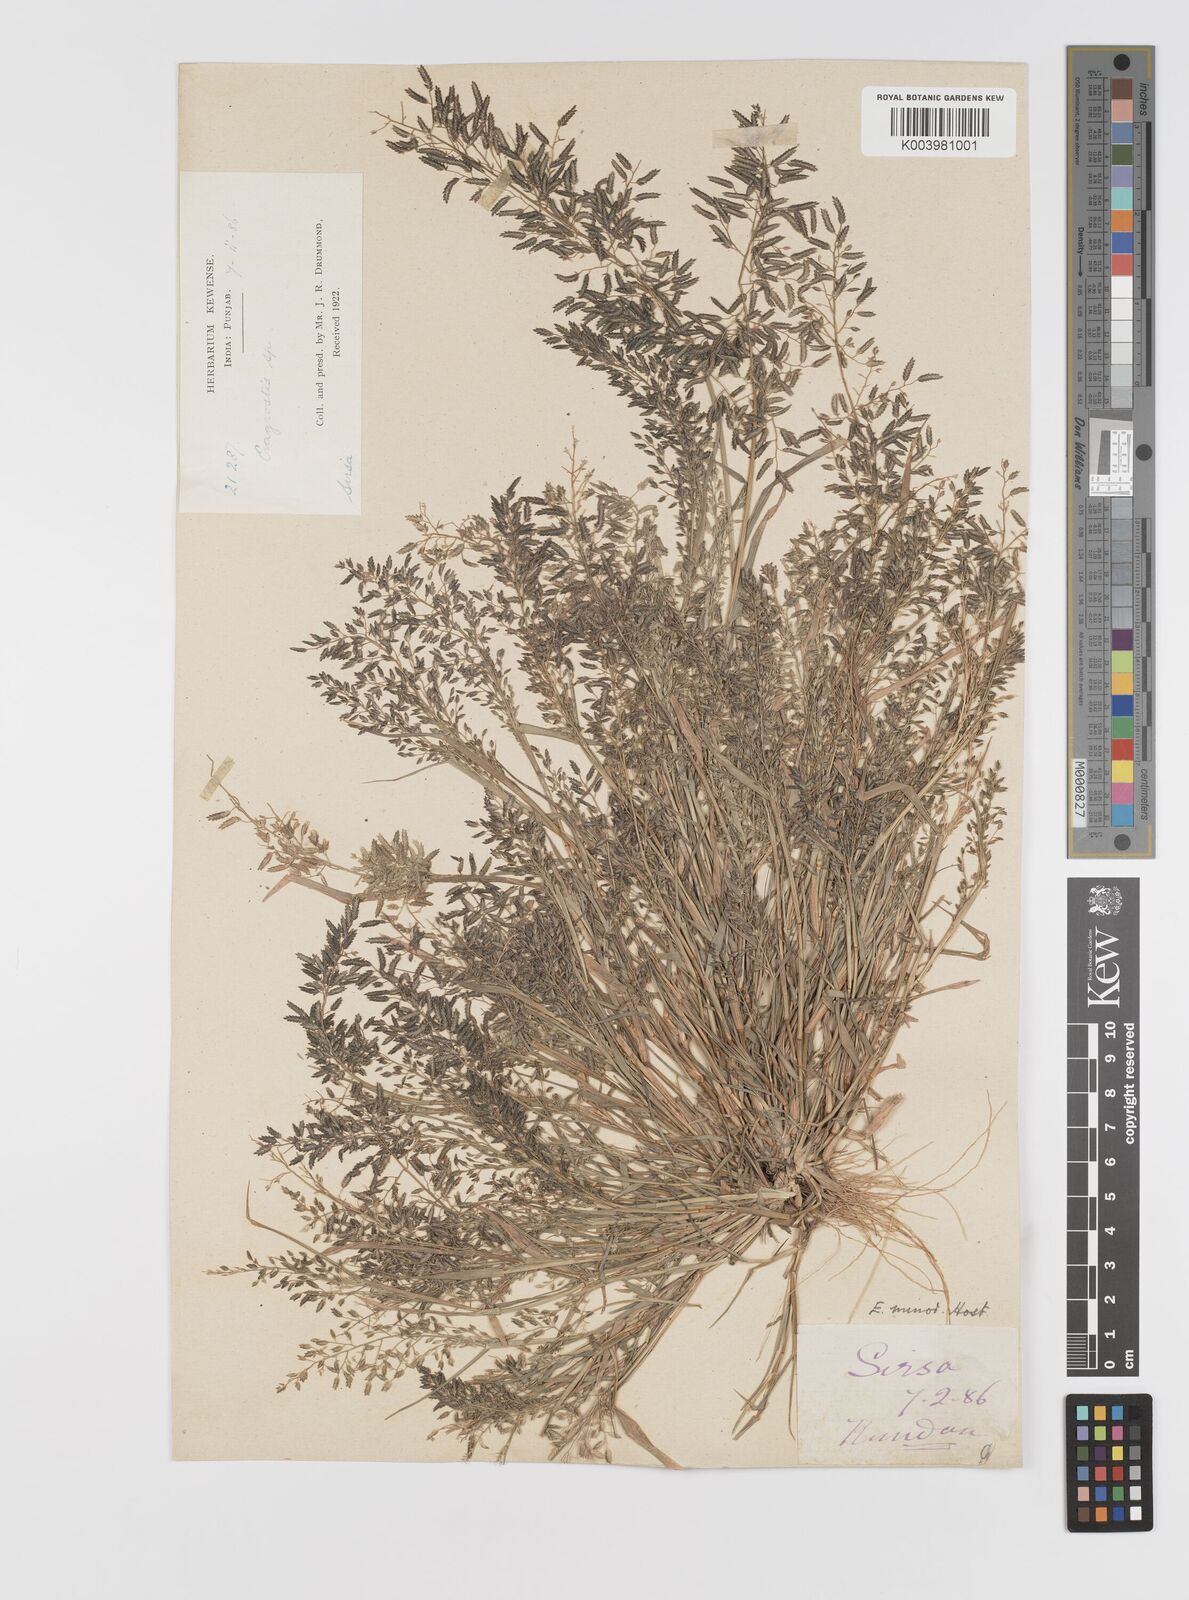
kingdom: Plantae
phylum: Tracheophyta
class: Liliopsida
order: Poales
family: Poaceae
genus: Eragrostis
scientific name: Eragrostis minor
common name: Small love-grass
